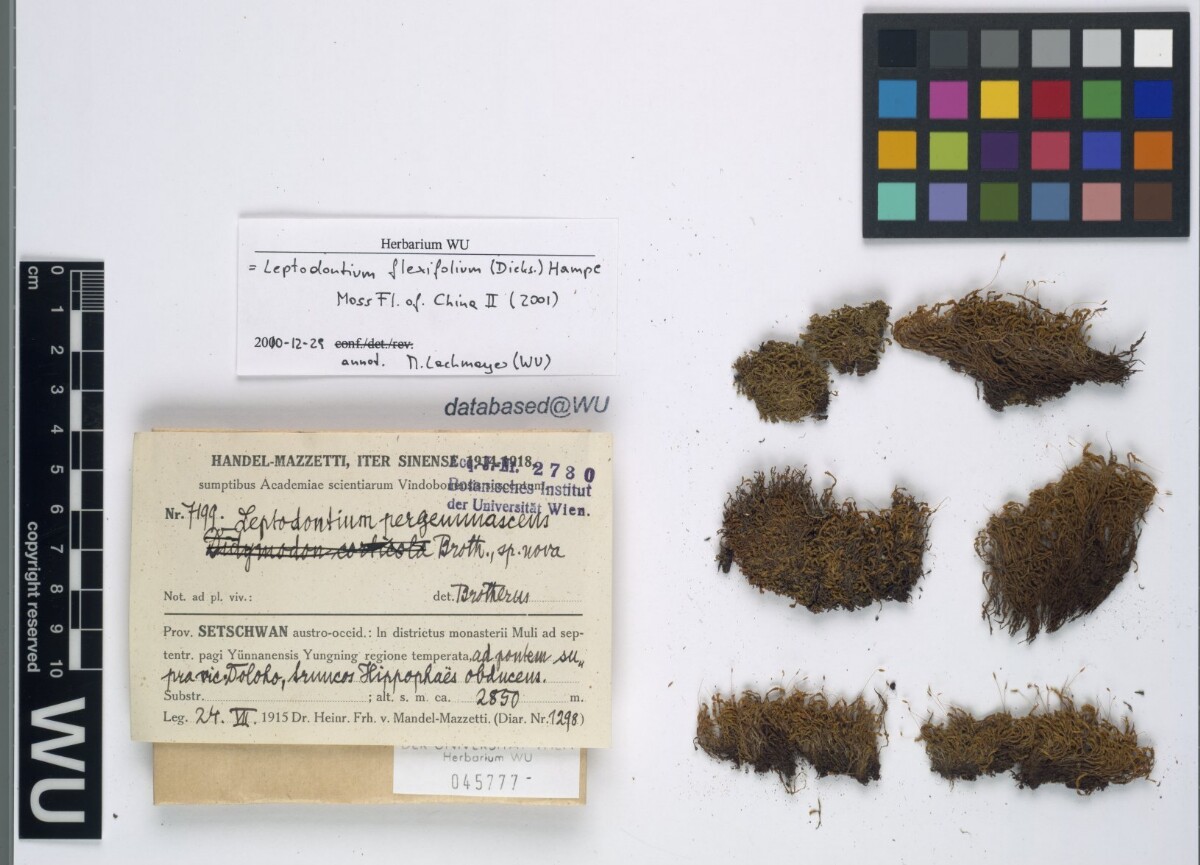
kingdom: Plantae
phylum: Bryophyta
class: Bryopsida
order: Pottiales
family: Pottiaceae
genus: Leptodontium
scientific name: Leptodontium flexifolium
